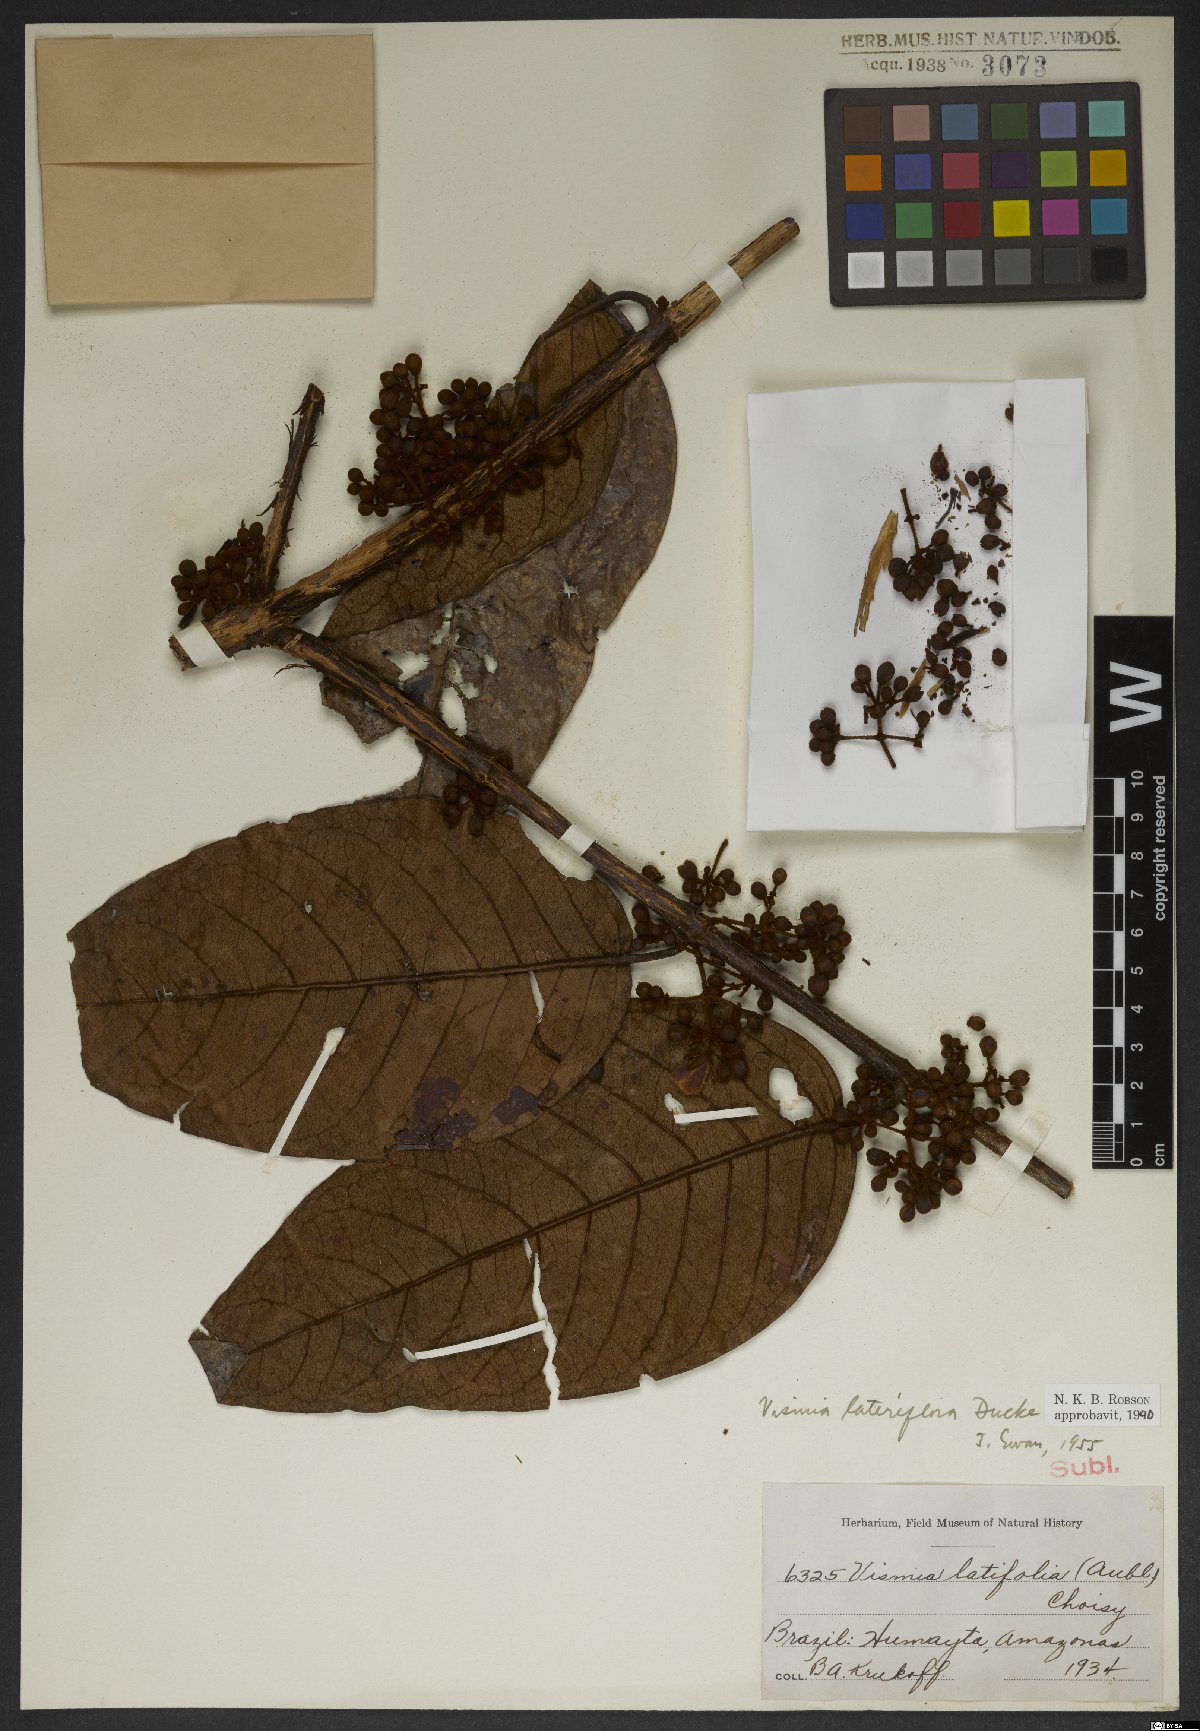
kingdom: Plantae
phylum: Tracheophyta
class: Magnoliopsida
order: Malpighiales
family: Hypericaceae
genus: Vismia
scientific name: Vismia lateriflora
